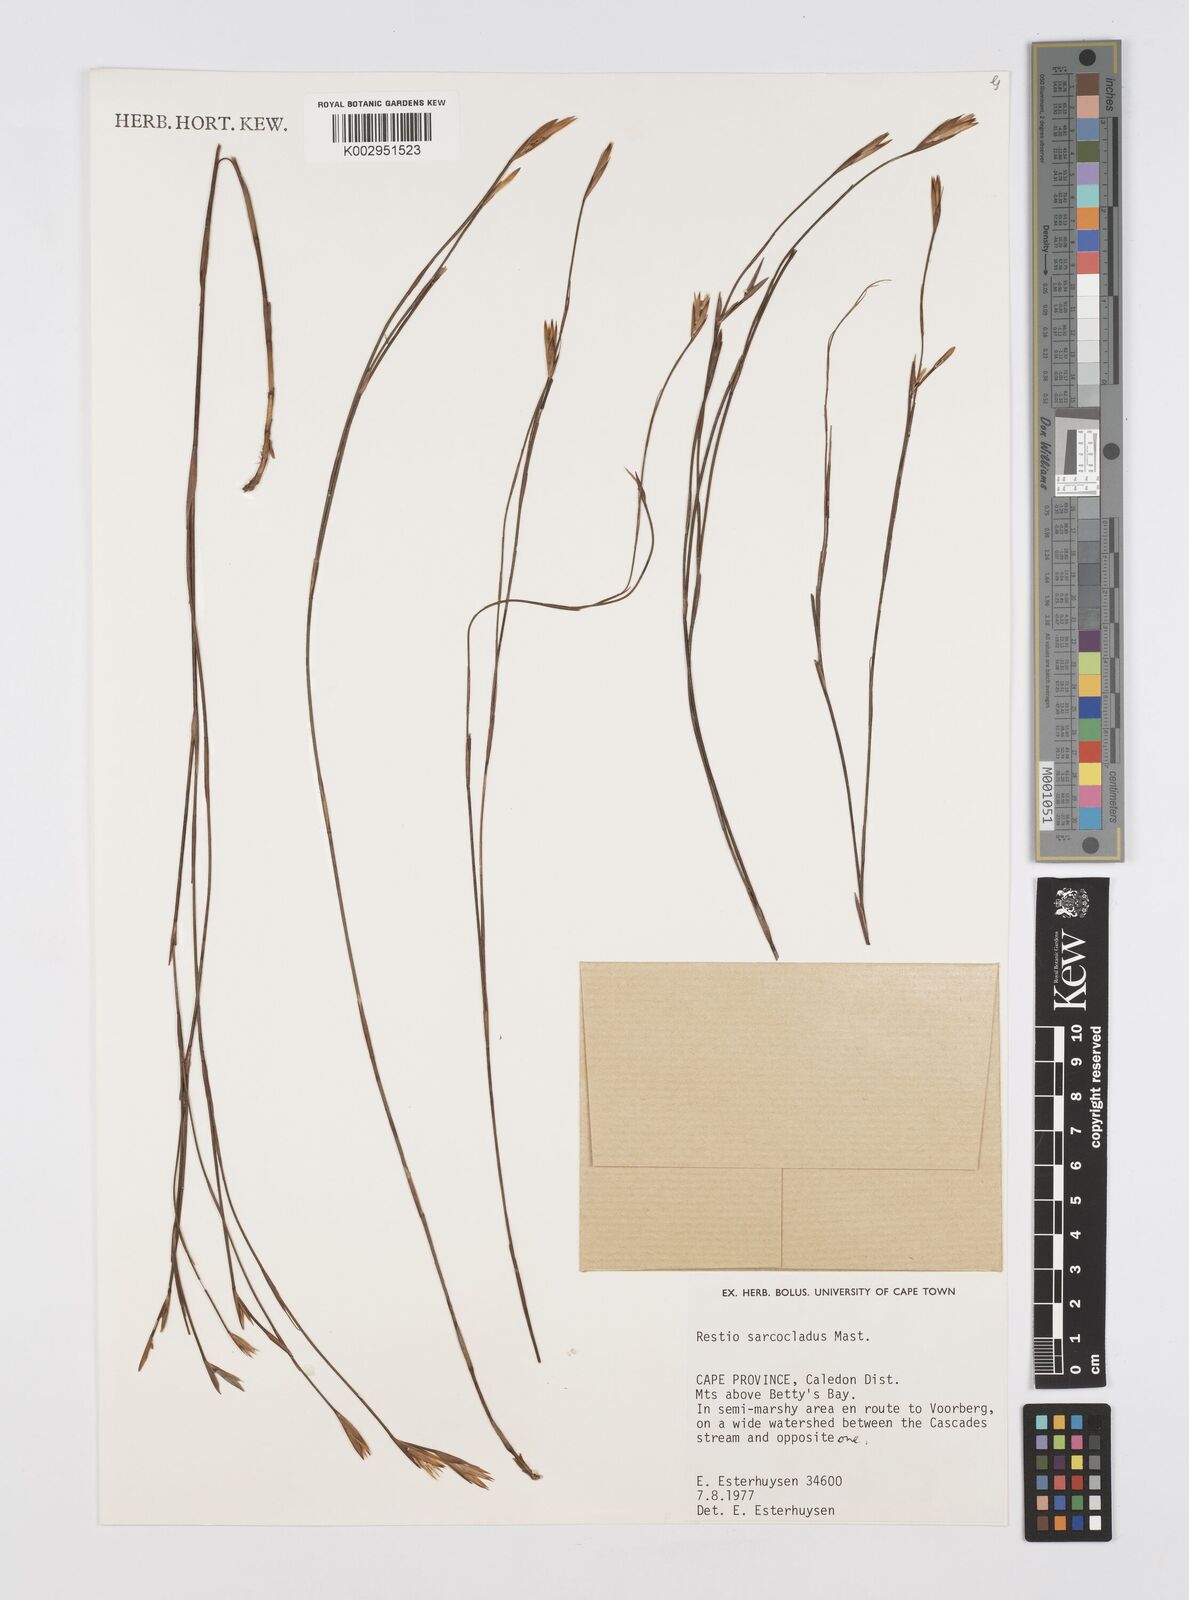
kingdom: Plantae
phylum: Tracheophyta
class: Liliopsida
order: Poales
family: Restionaceae
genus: Restio
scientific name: Restio saroclados
